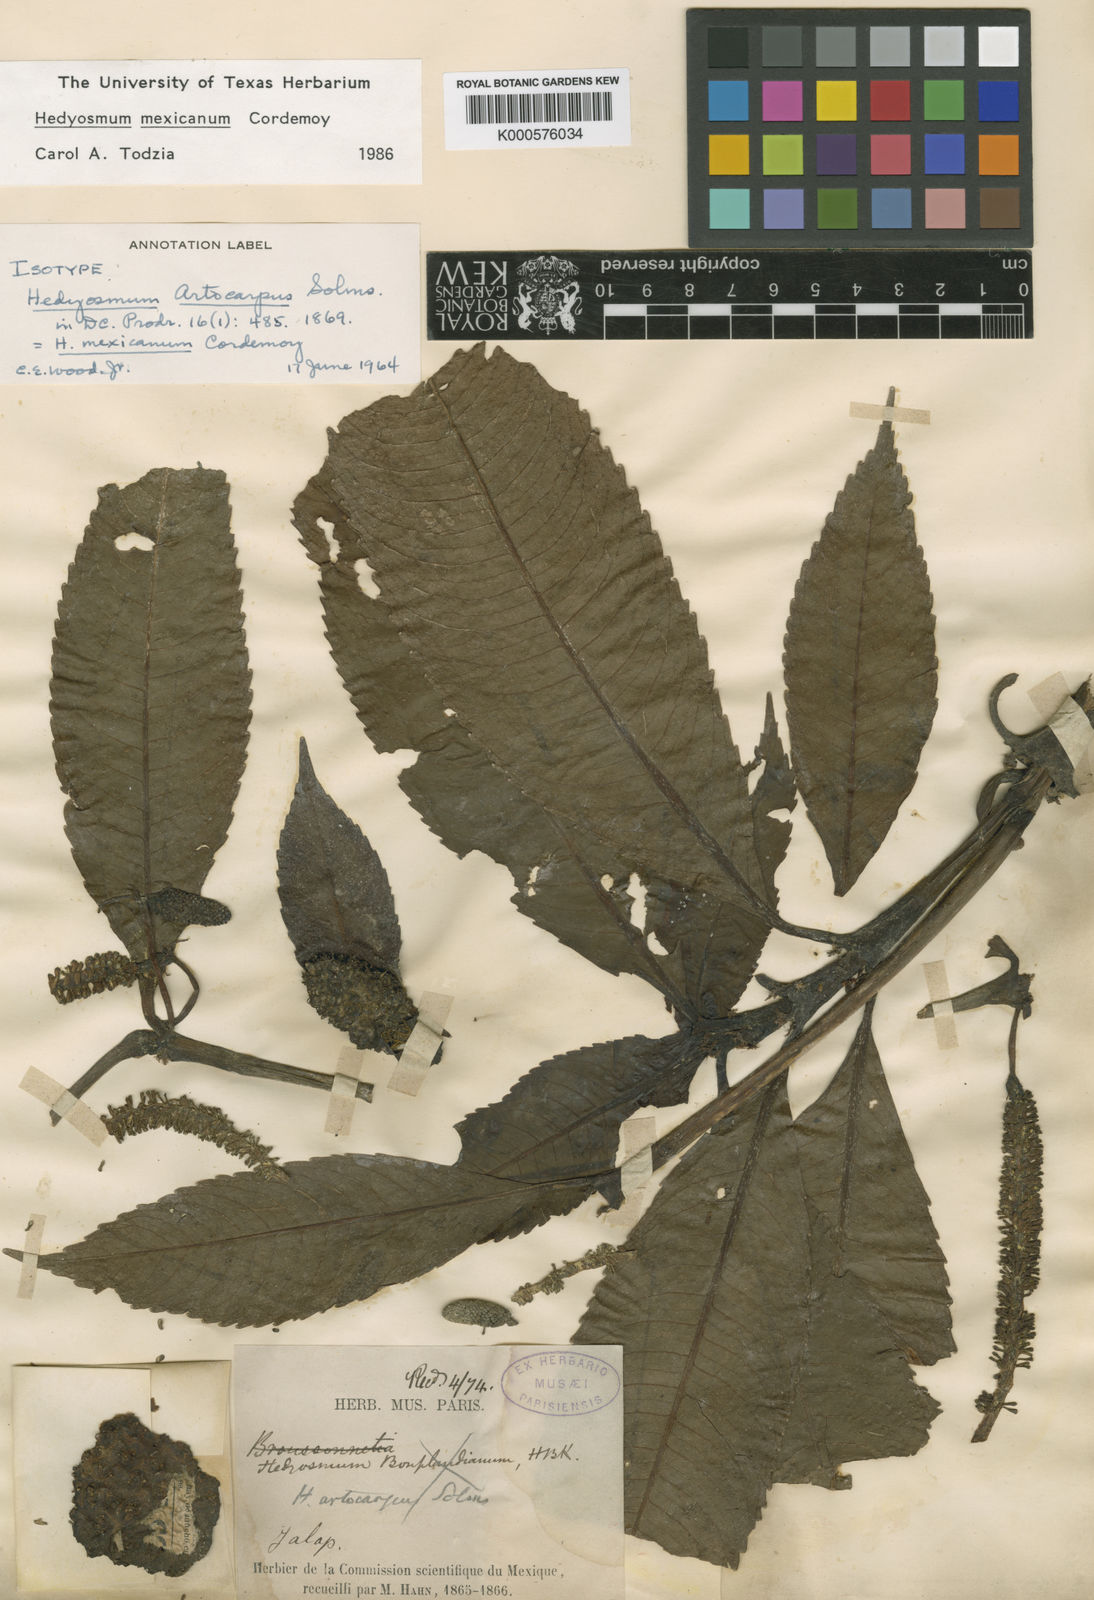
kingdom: Plantae
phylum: Tracheophyta
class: Magnoliopsida
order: Chloranthales
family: Chloranthaceae
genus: Hedyosmum
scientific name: Hedyosmum mexicanum
